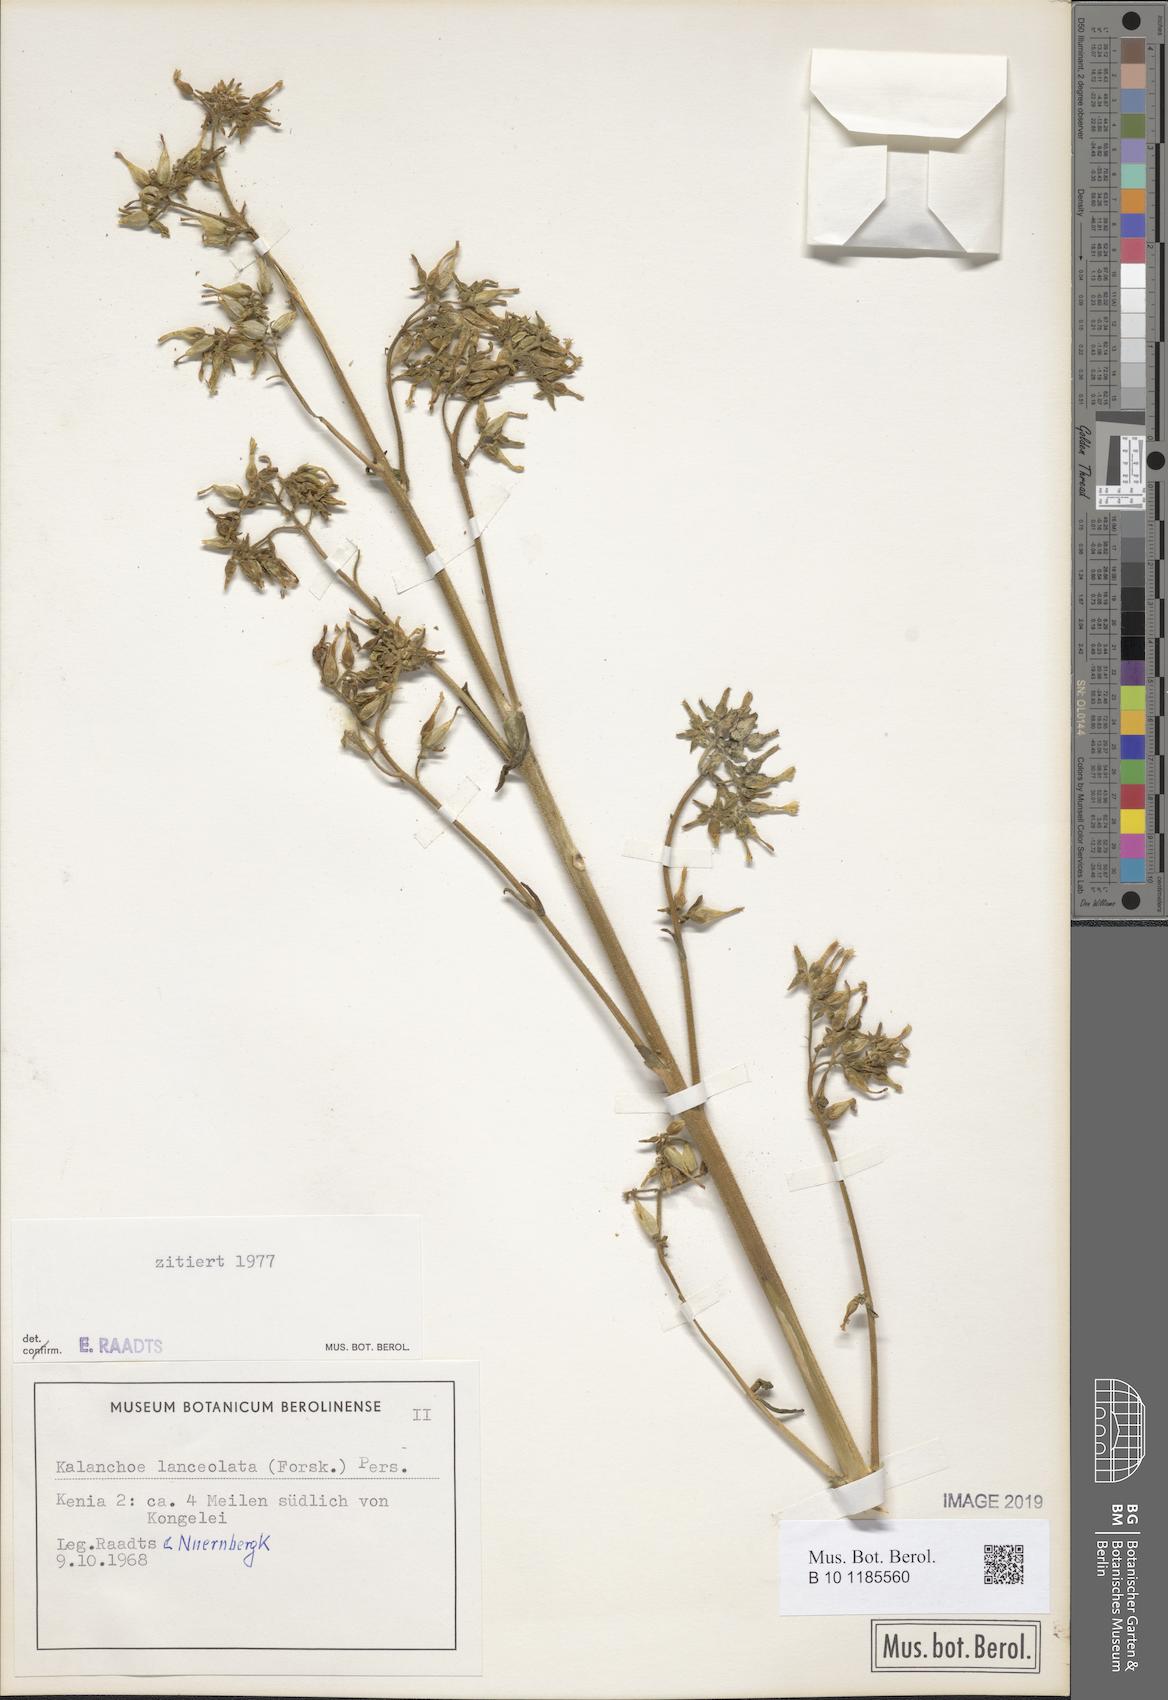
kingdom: Plantae
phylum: Tracheophyta
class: Magnoliopsida
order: Saxifragales
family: Crassulaceae
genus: Kalanchoe
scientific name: Kalanchoe lanceolata
